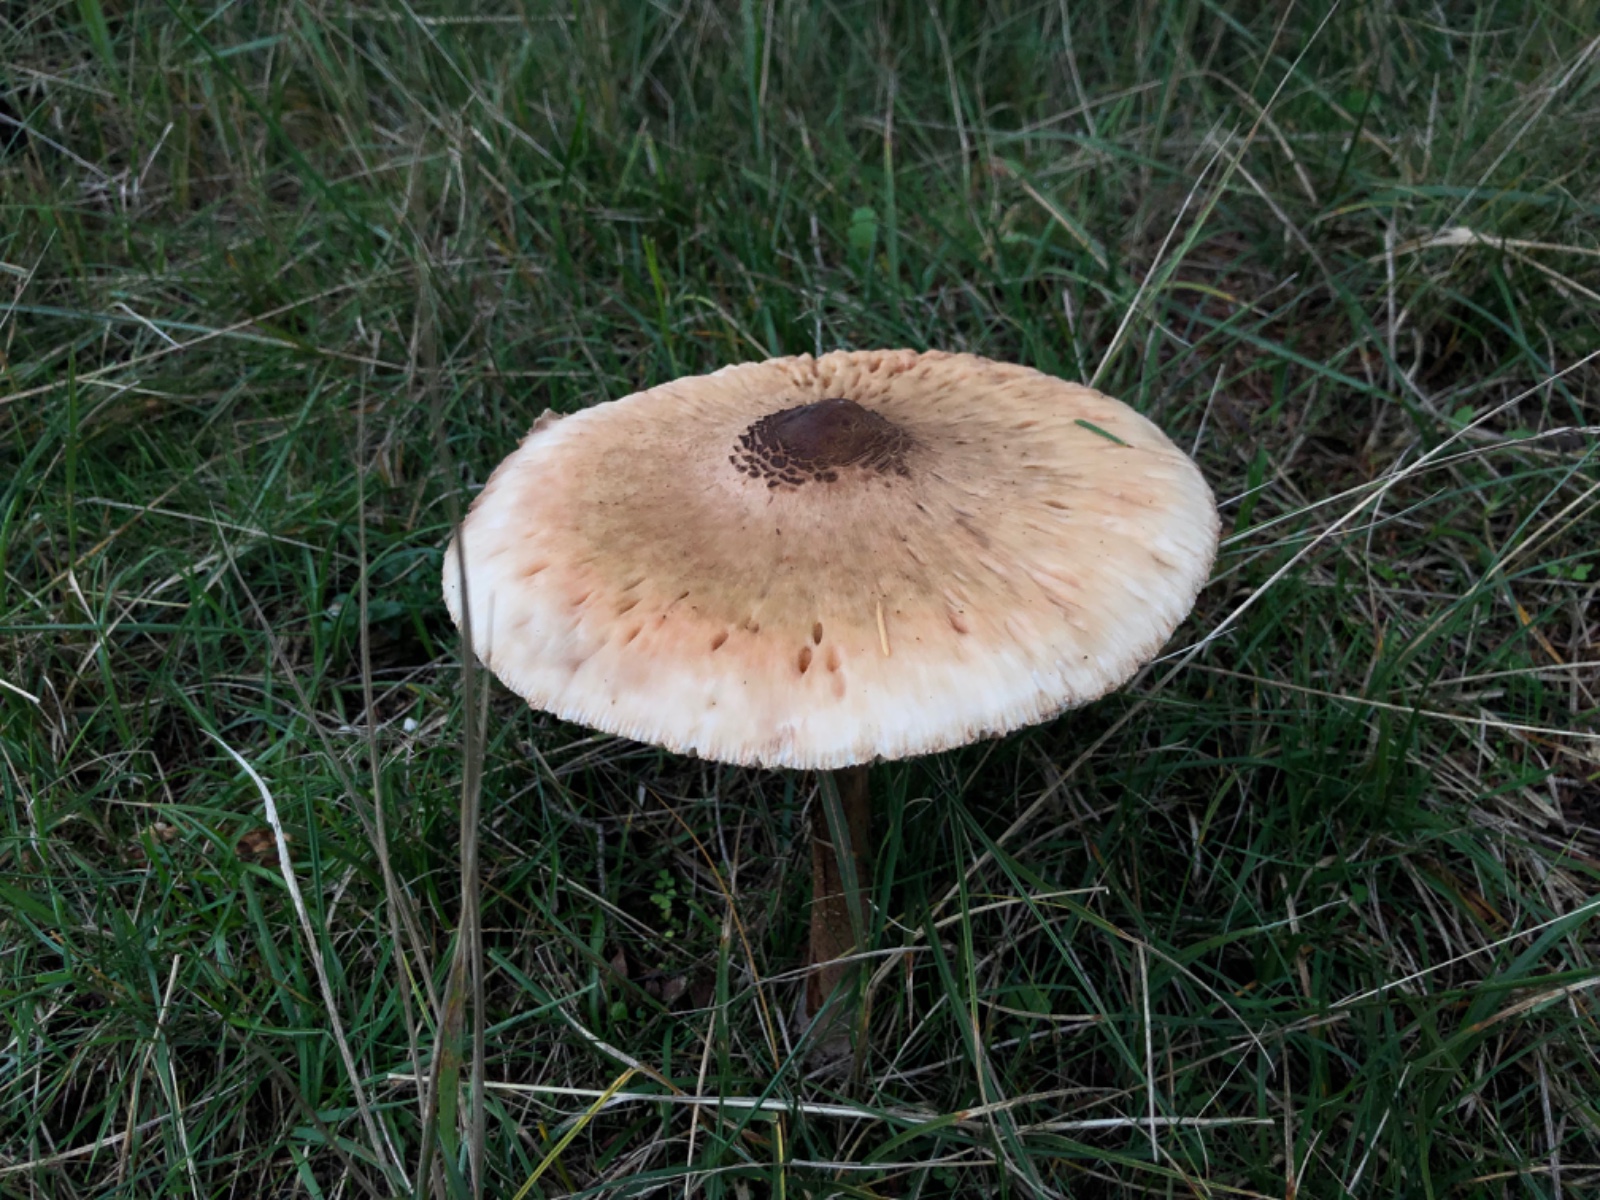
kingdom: Fungi
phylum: Basidiomycota
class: Agaricomycetes
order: Agaricales
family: Agaricaceae
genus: Macrolepiota
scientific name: Macrolepiota procera
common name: stor kæmpeparasolhat
